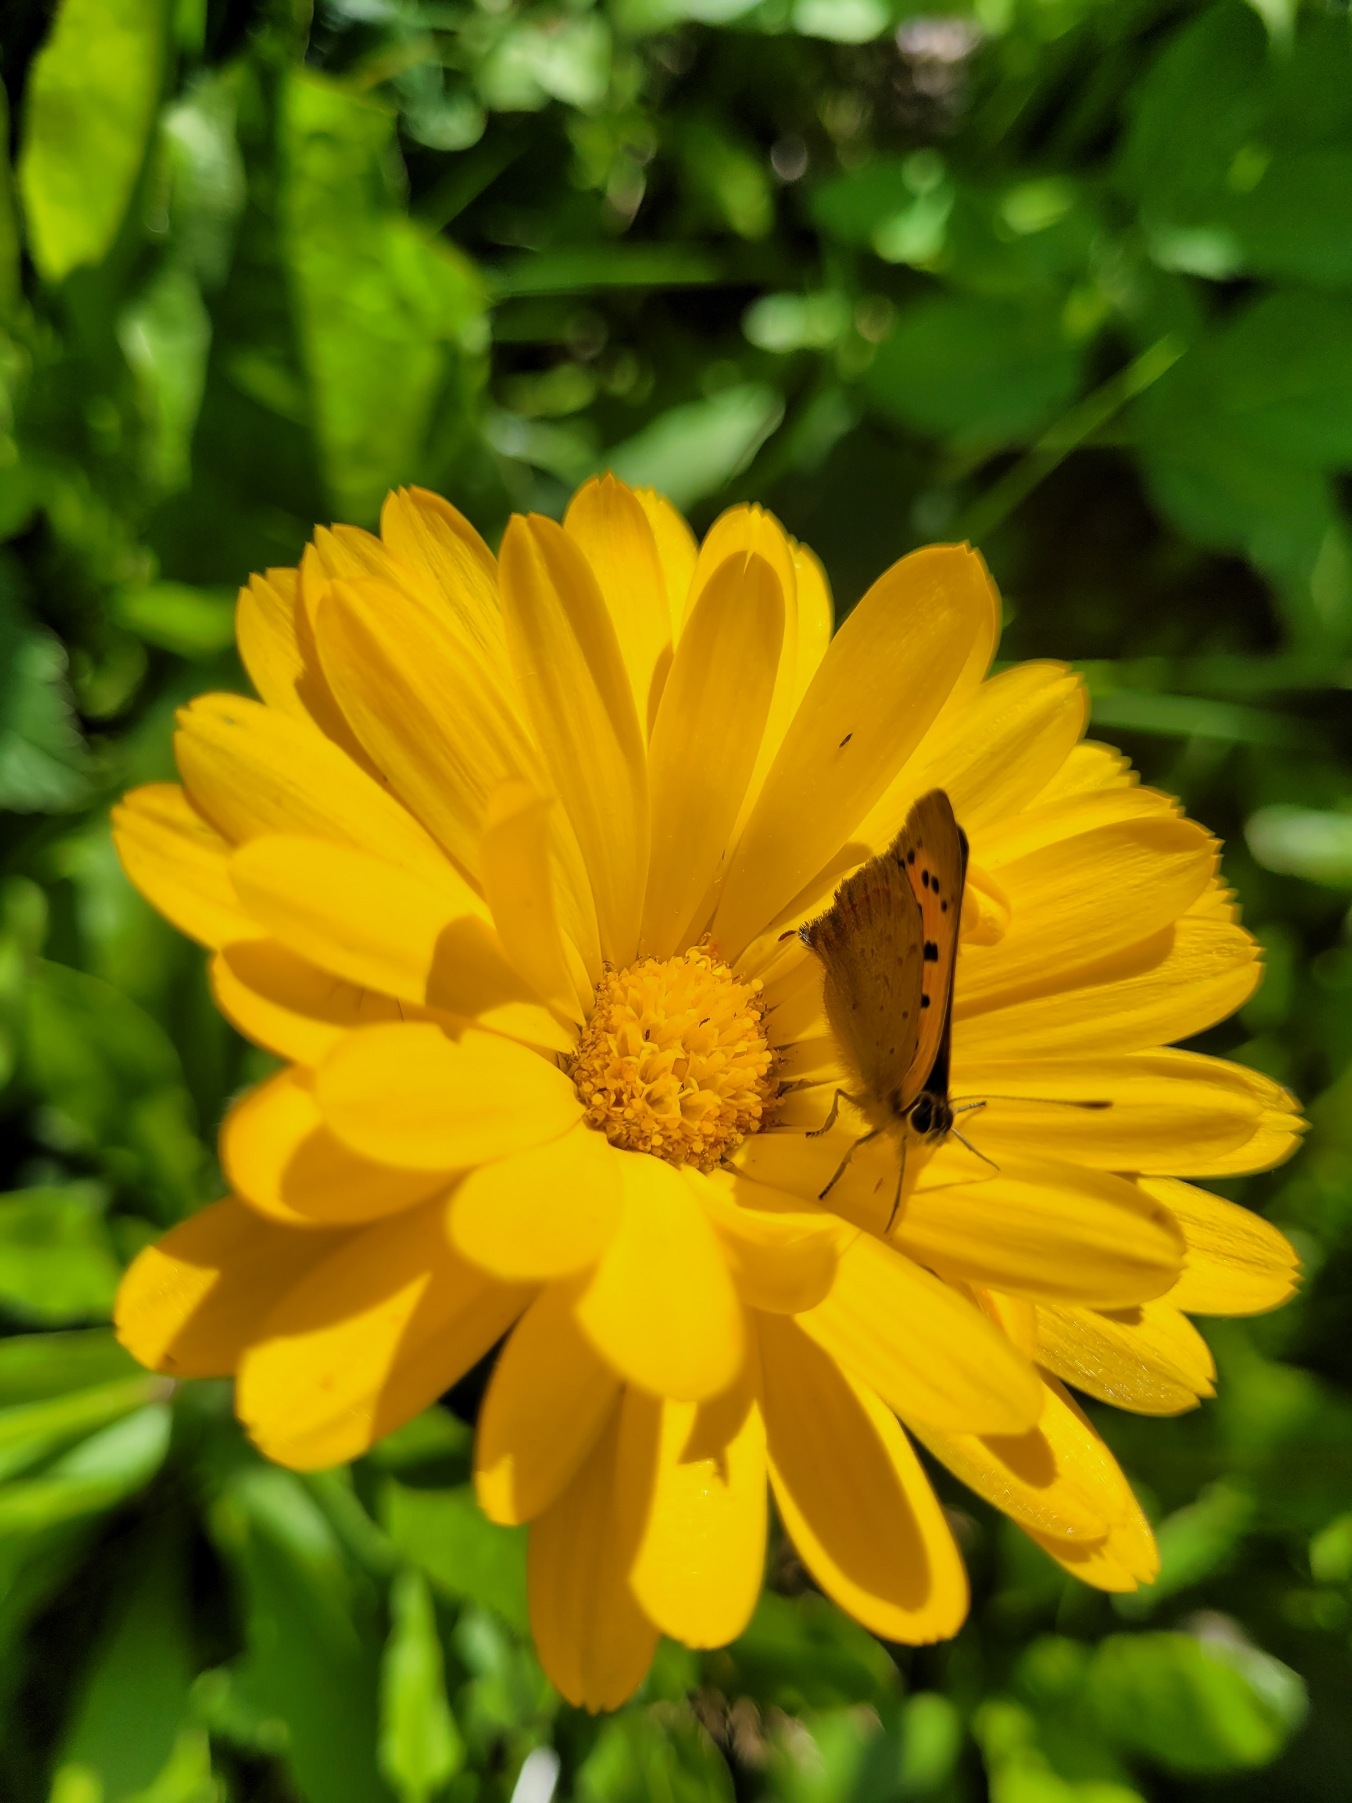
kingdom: Animalia
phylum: Arthropoda
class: Insecta
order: Lepidoptera
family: Lycaenidae
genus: Lycaena
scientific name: Lycaena phlaeas
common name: Lille ildfugl
